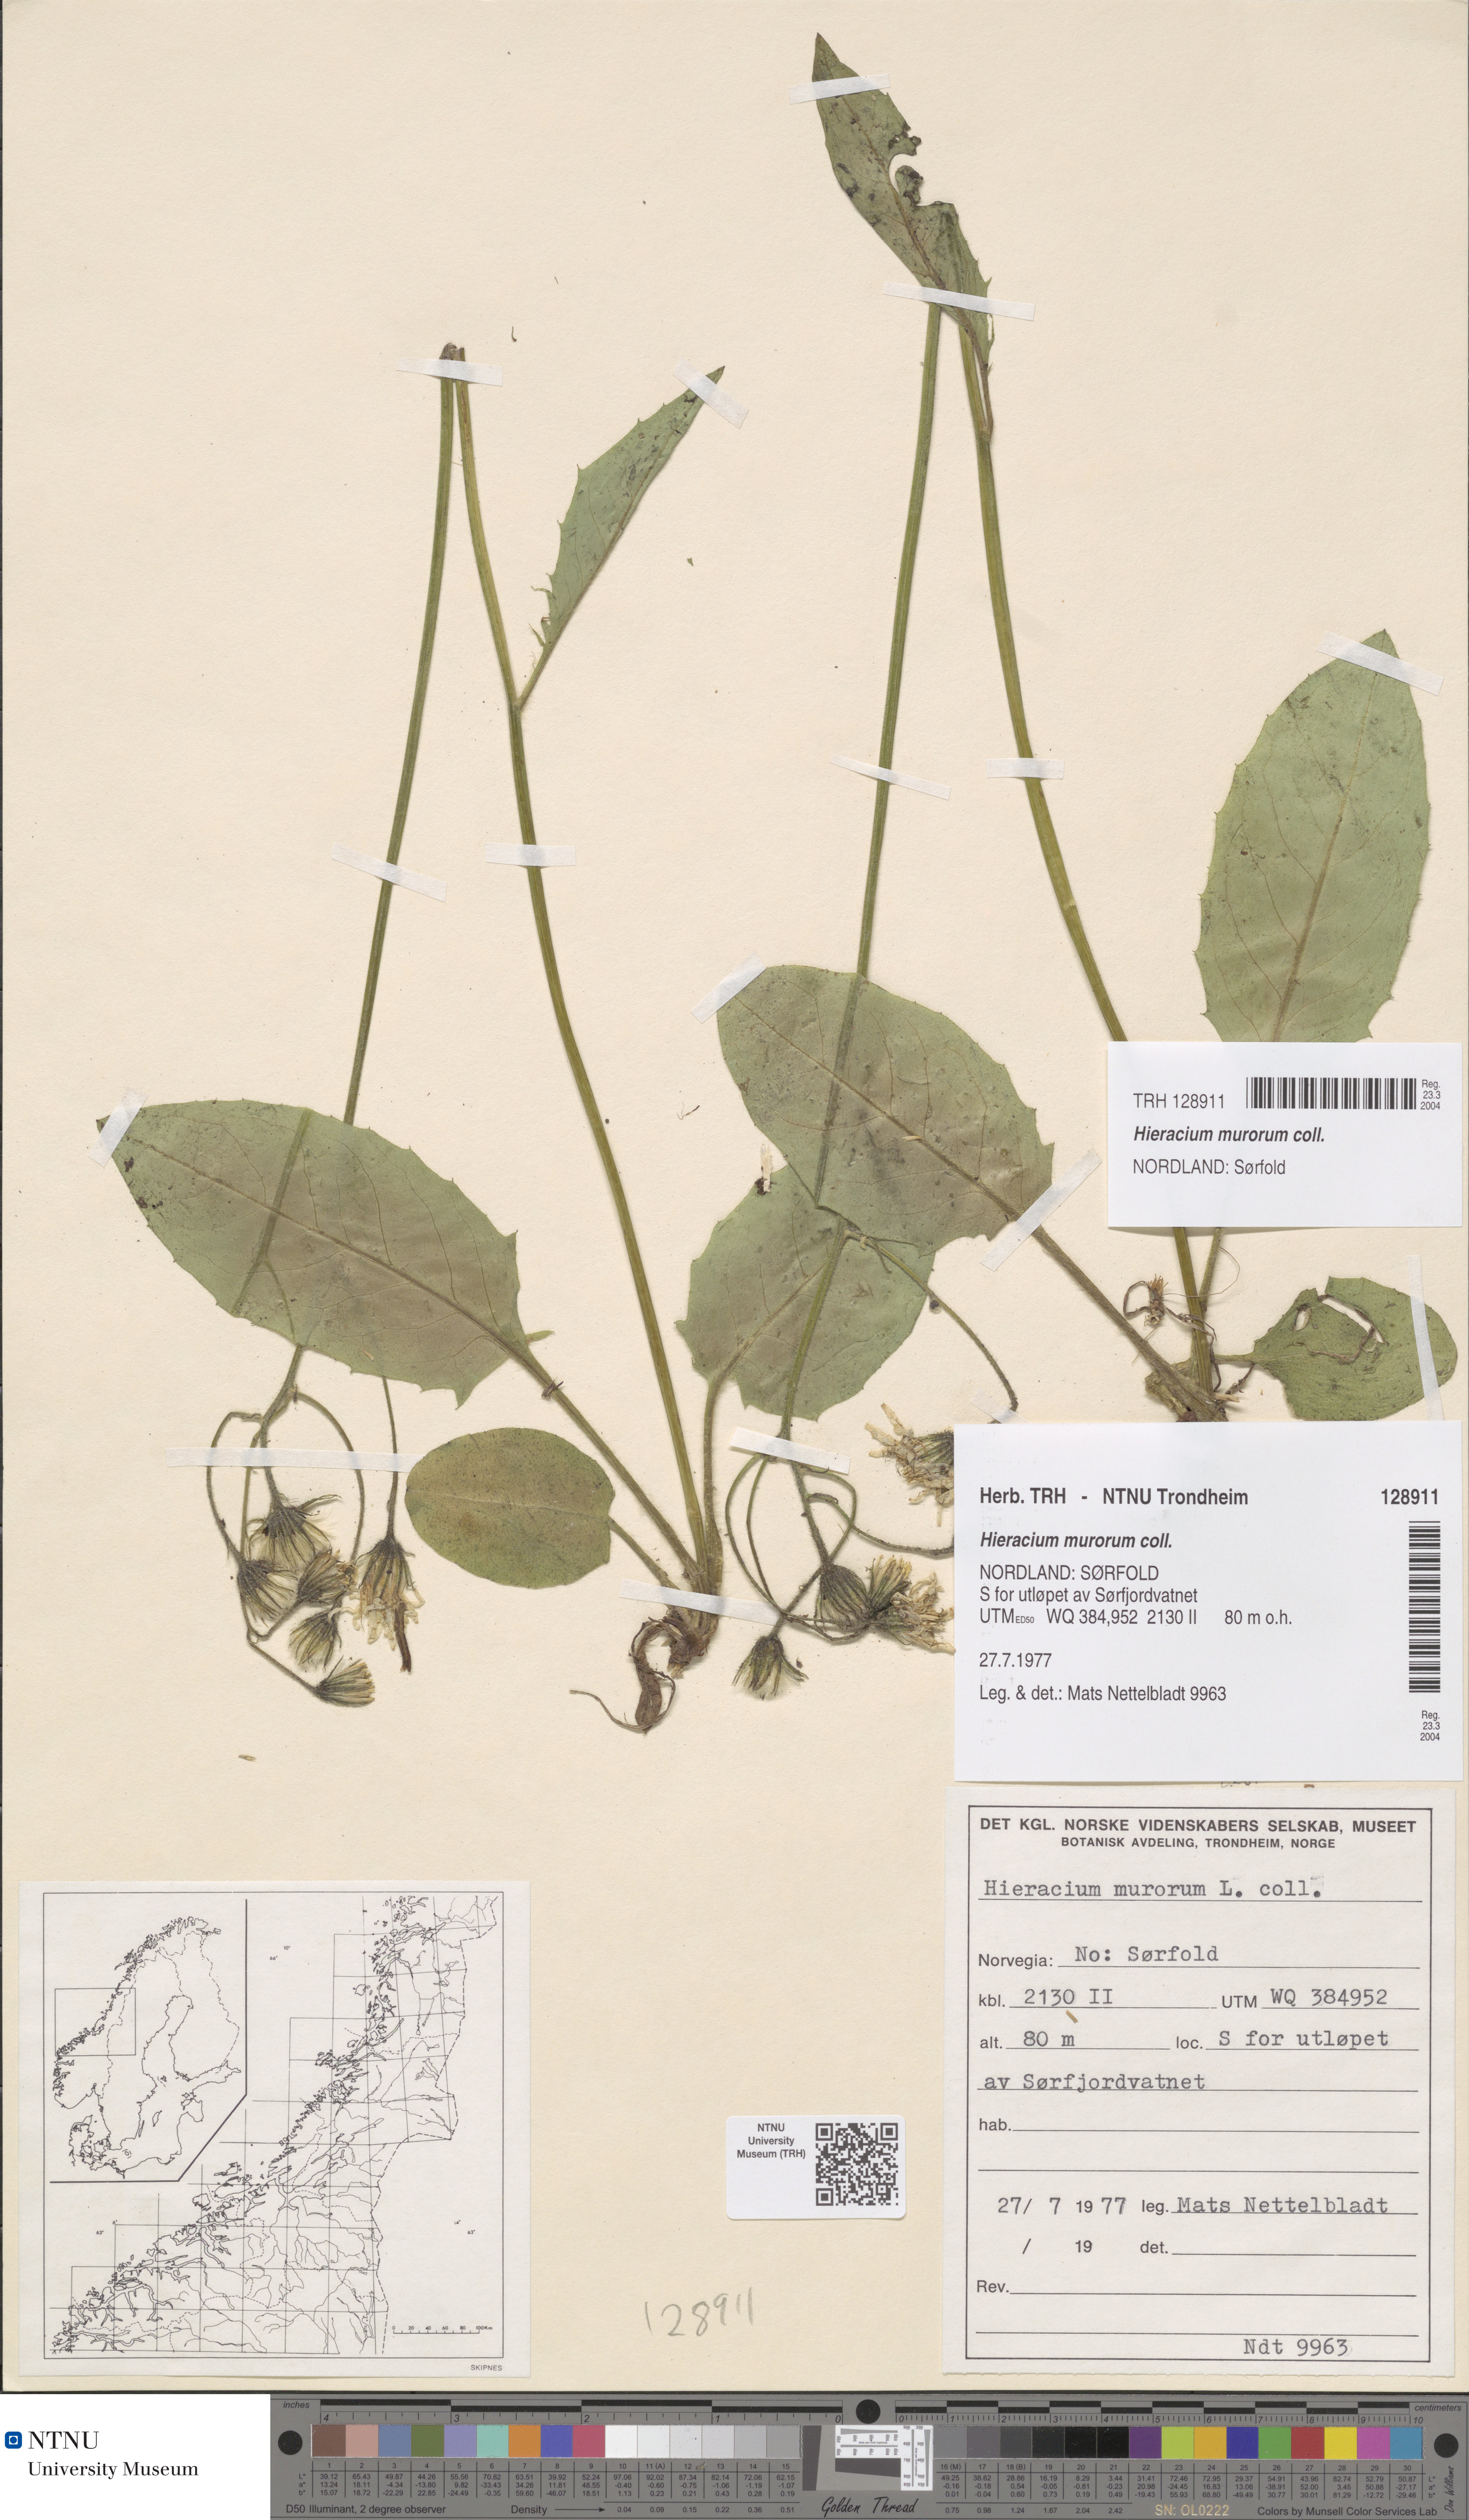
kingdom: Plantae
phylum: Tracheophyta
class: Magnoliopsida
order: Asterales
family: Asteraceae
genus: Hieracium
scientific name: Hieracium murorum
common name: Wall hawkweed
